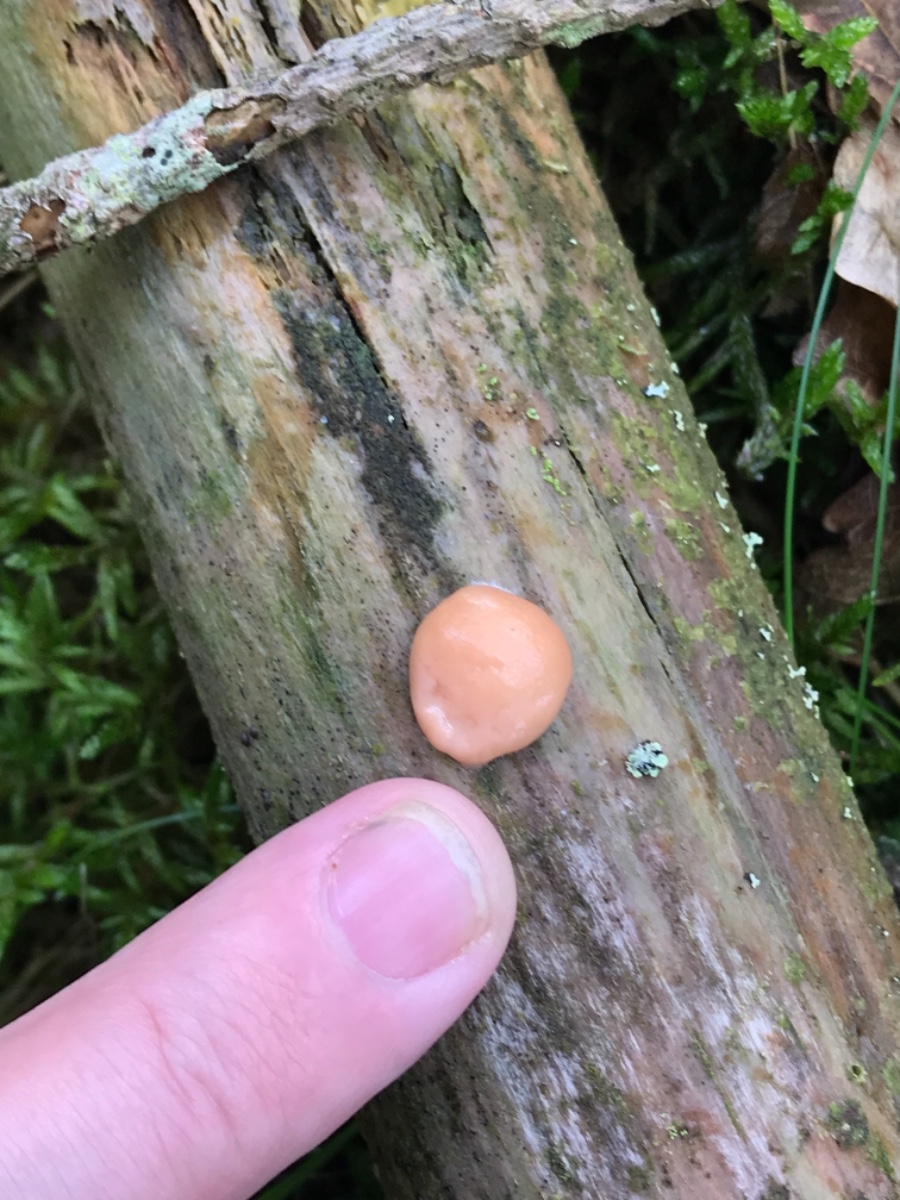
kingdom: Protozoa
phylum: Mycetozoa
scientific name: Mycetozoa
